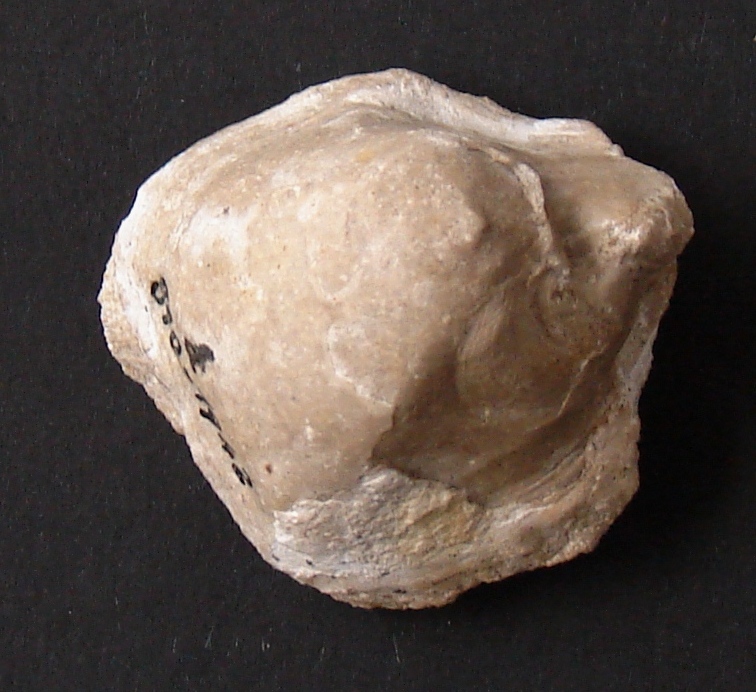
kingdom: Animalia
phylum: Mollusca
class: Bivalvia
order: Ostreida
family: Flemingostreidae
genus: Liostrea
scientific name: Liostrea hisingeri
